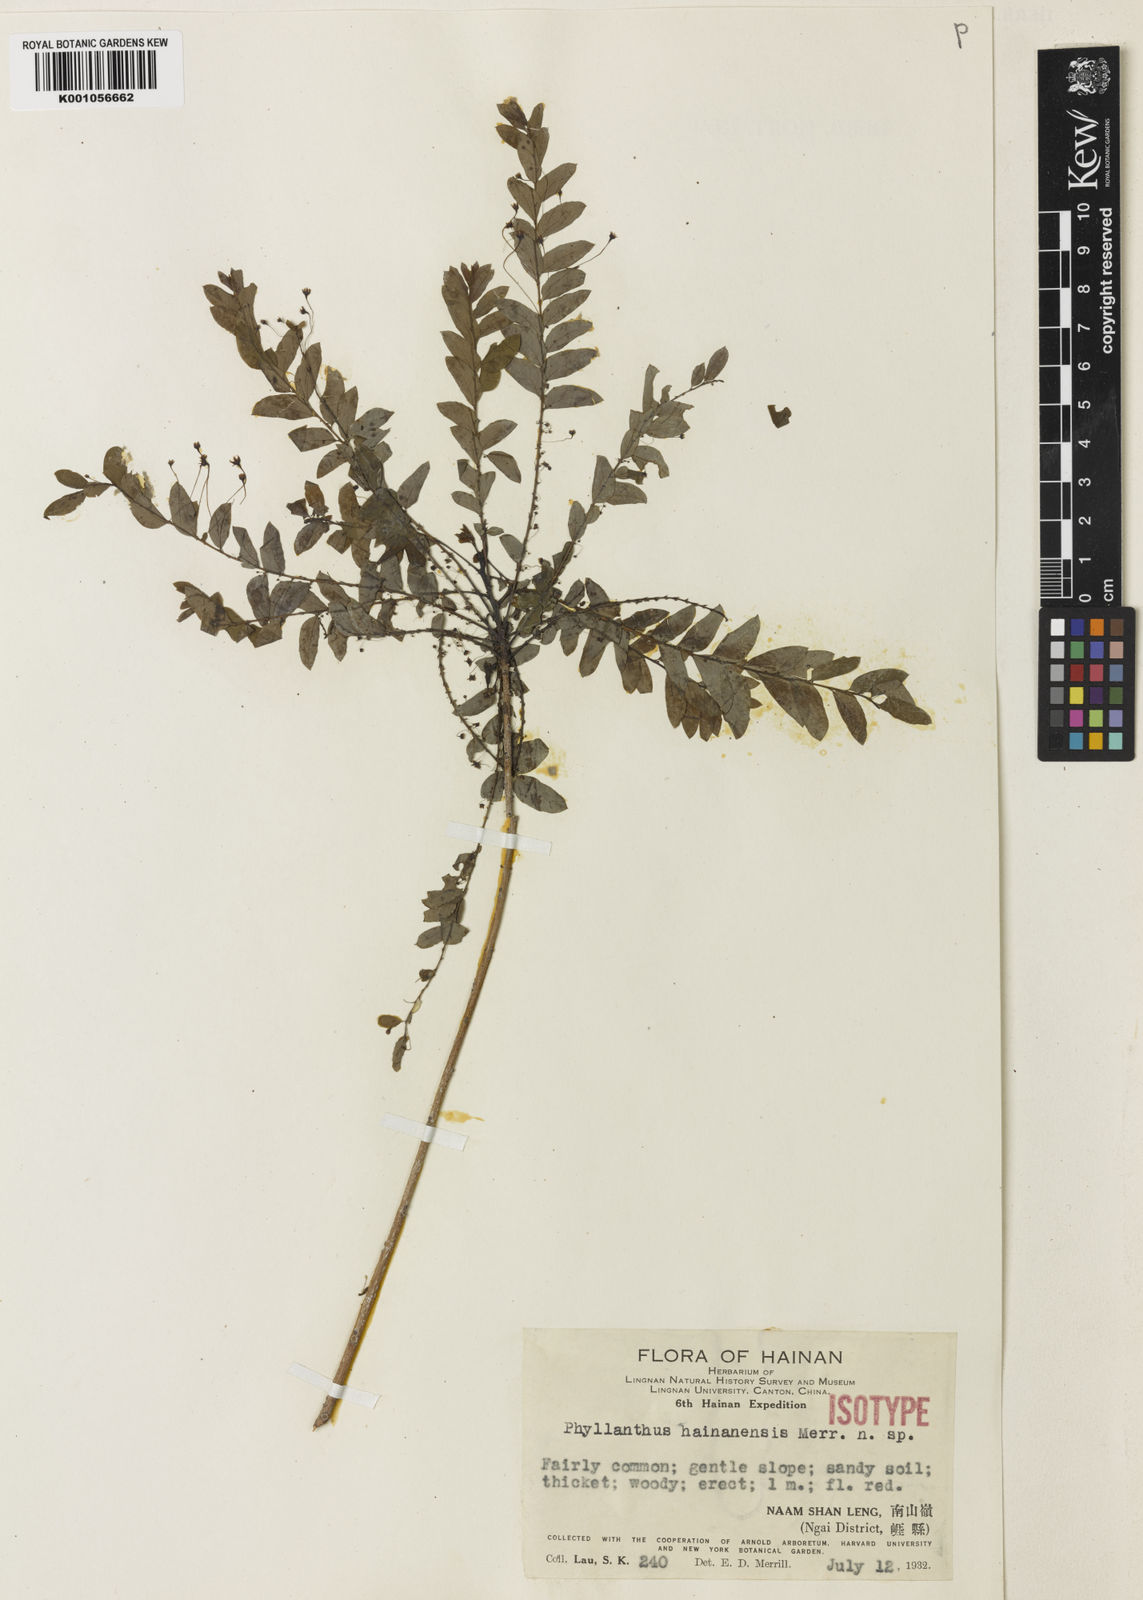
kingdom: Plantae
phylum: Tracheophyta
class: Magnoliopsida
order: Malpighiales
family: Phyllanthaceae
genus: Phyllanthus
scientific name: Phyllanthus hainanensis
